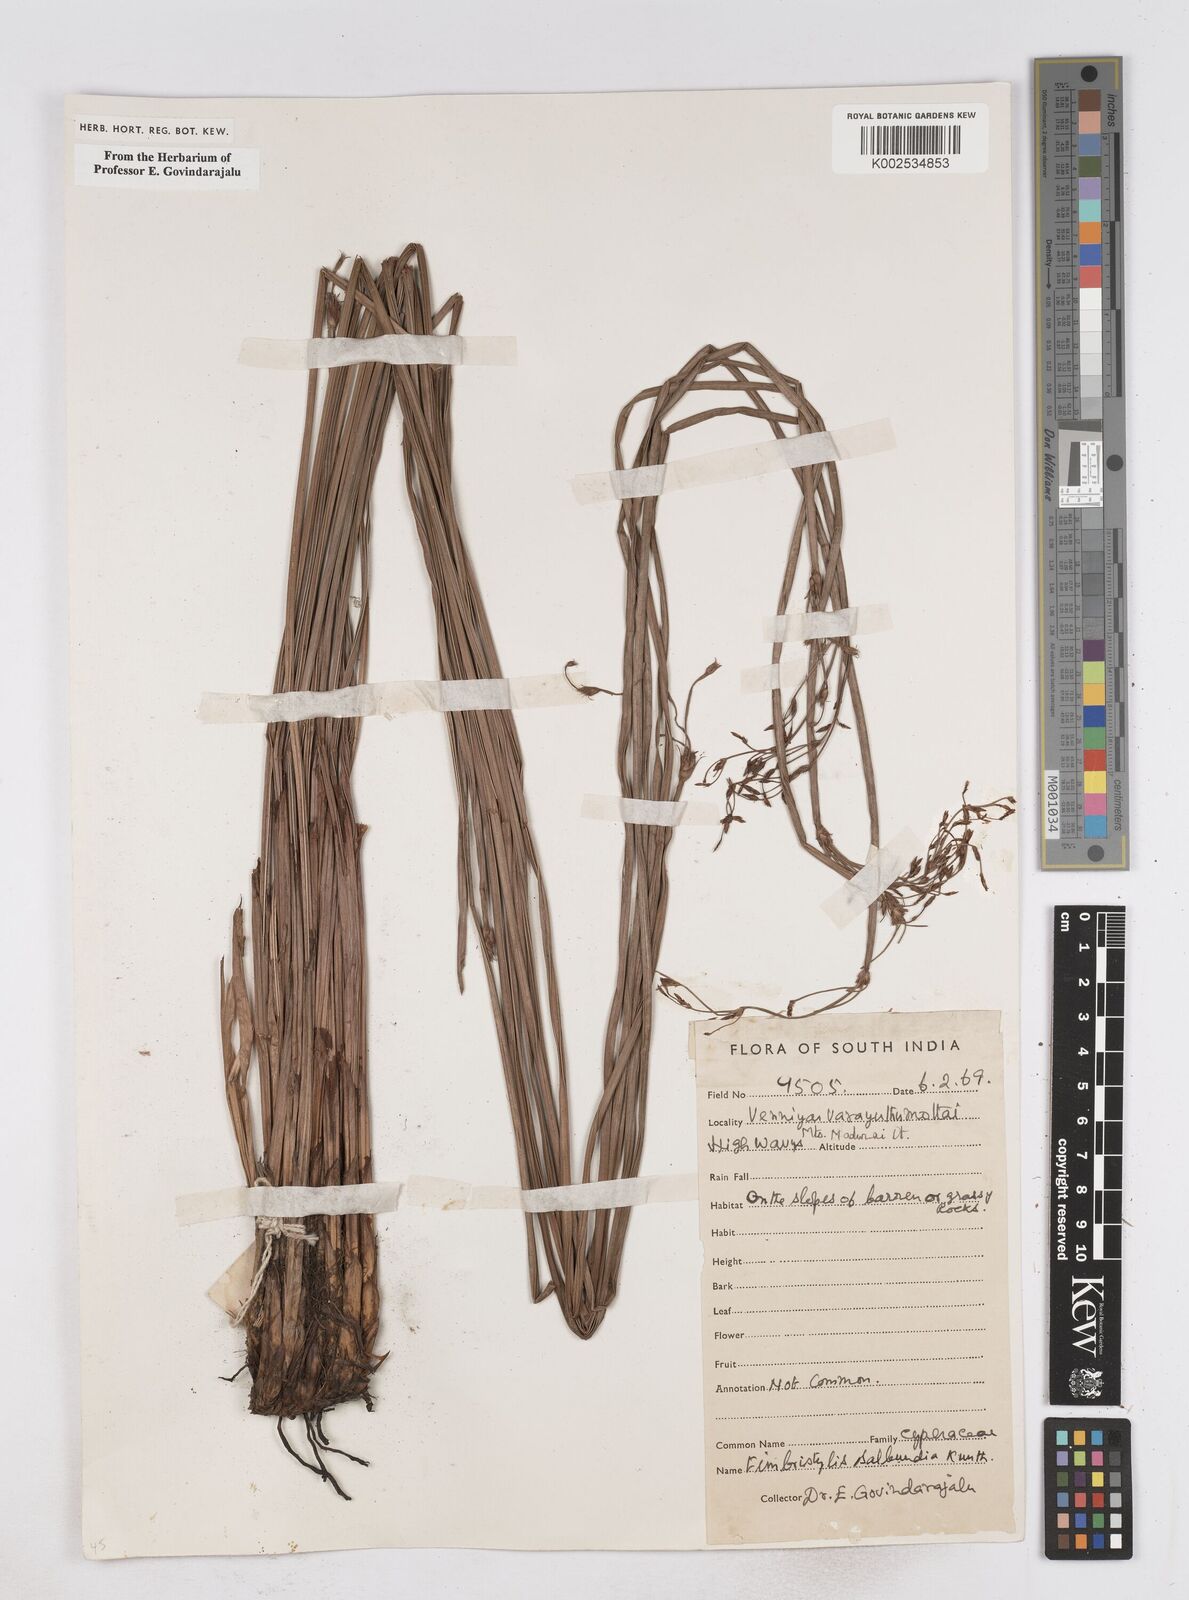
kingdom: Plantae
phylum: Tracheophyta
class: Liliopsida
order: Poales
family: Cyperaceae
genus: Fimbristylis
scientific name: Fimbristylis salbundia
